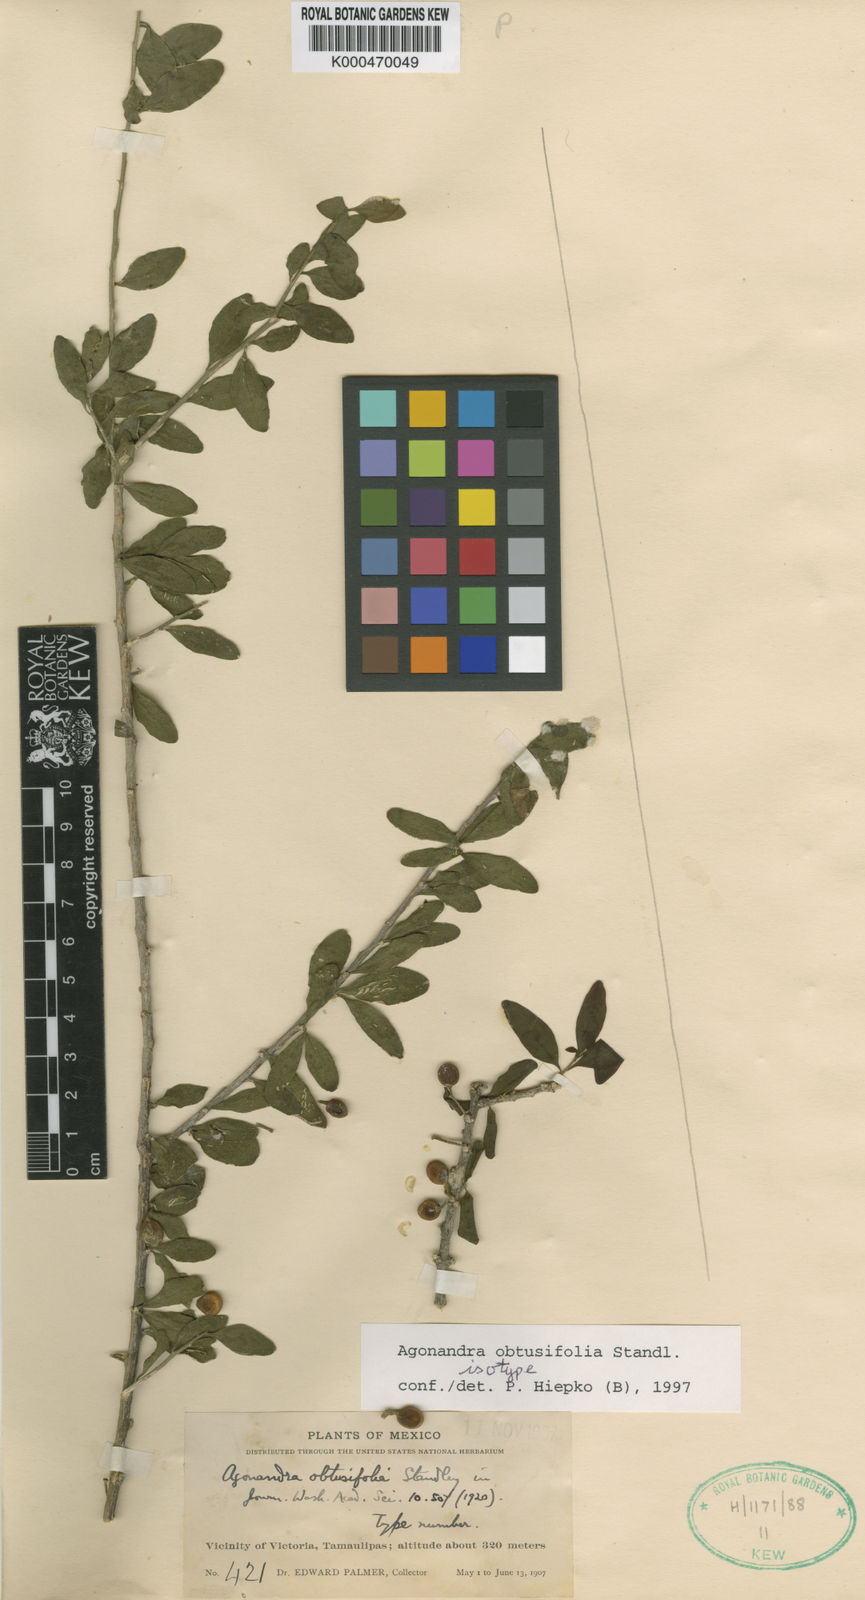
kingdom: Plantae
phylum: Tracheophyta
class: Magnoliopsida
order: Santalales
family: Opiliaceae
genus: Agonandra
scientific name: Agonandra obtusifolia
